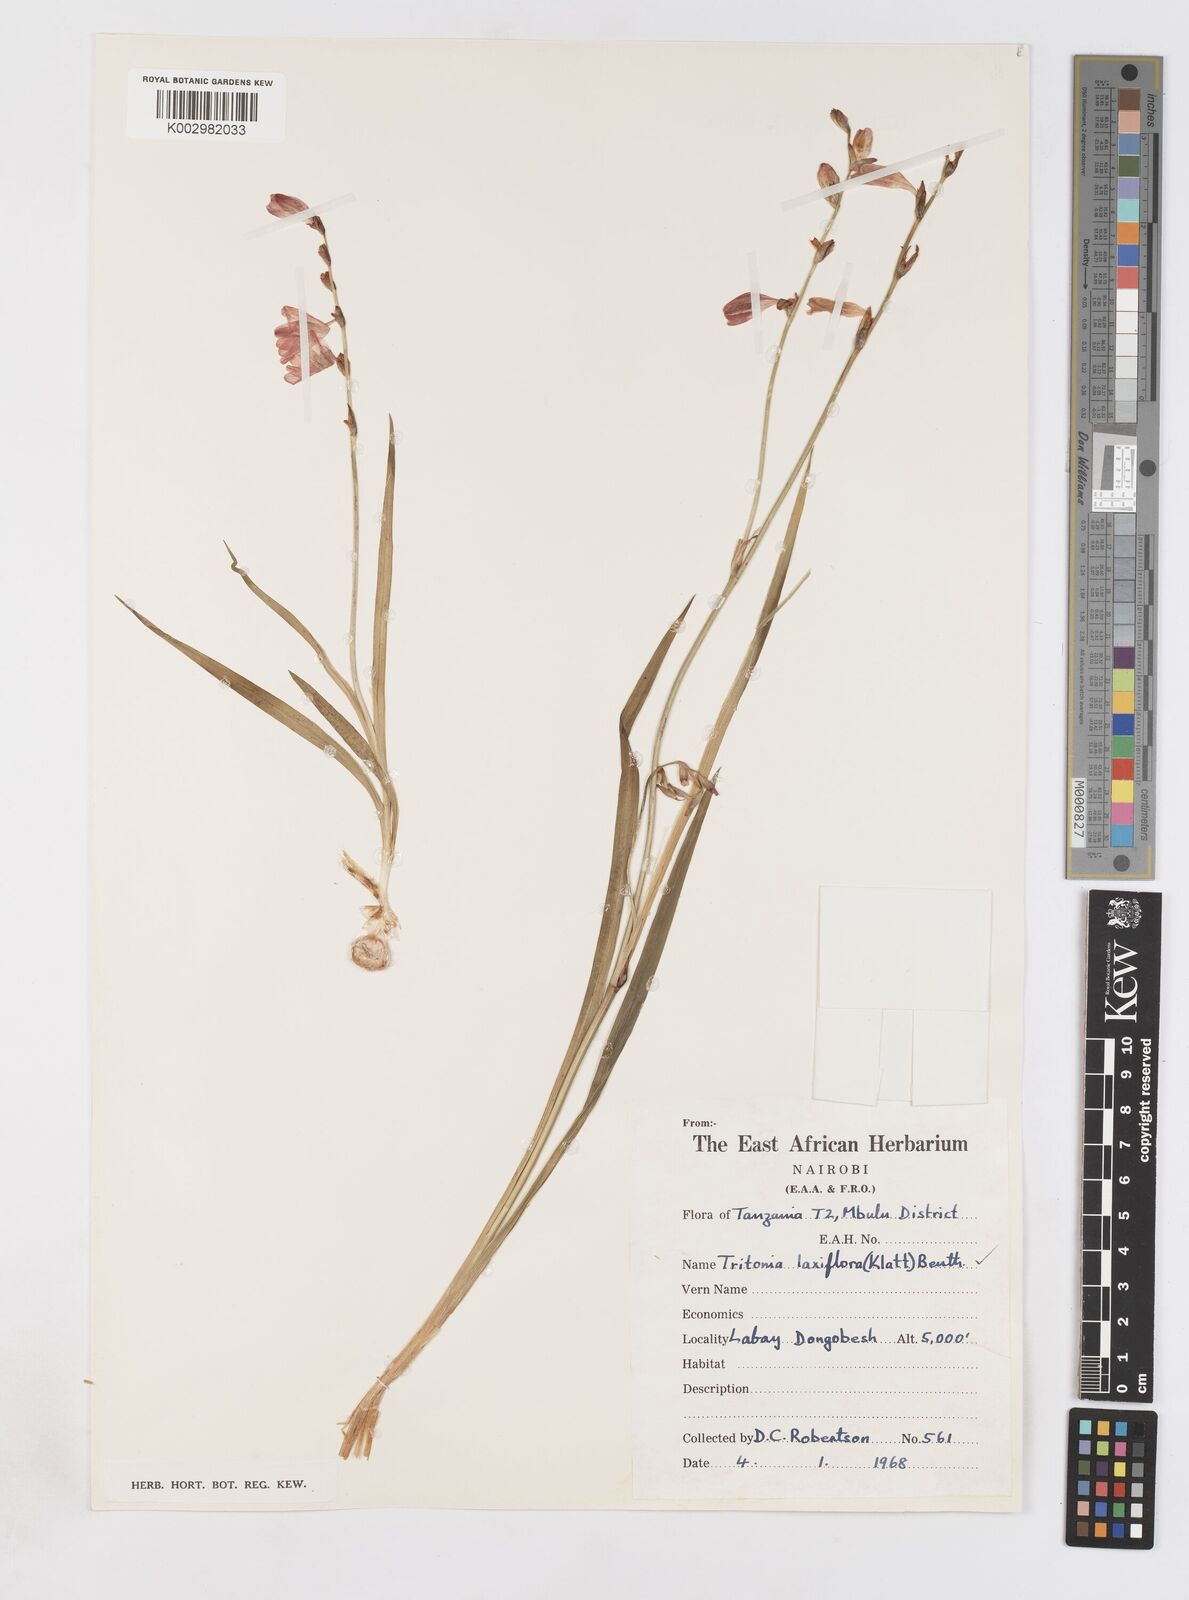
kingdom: Plantae
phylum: Tracheophyta
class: Liliopsida
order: Asparagales
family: Iridaceae
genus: Tritonia
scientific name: Tritonia laxifolia
